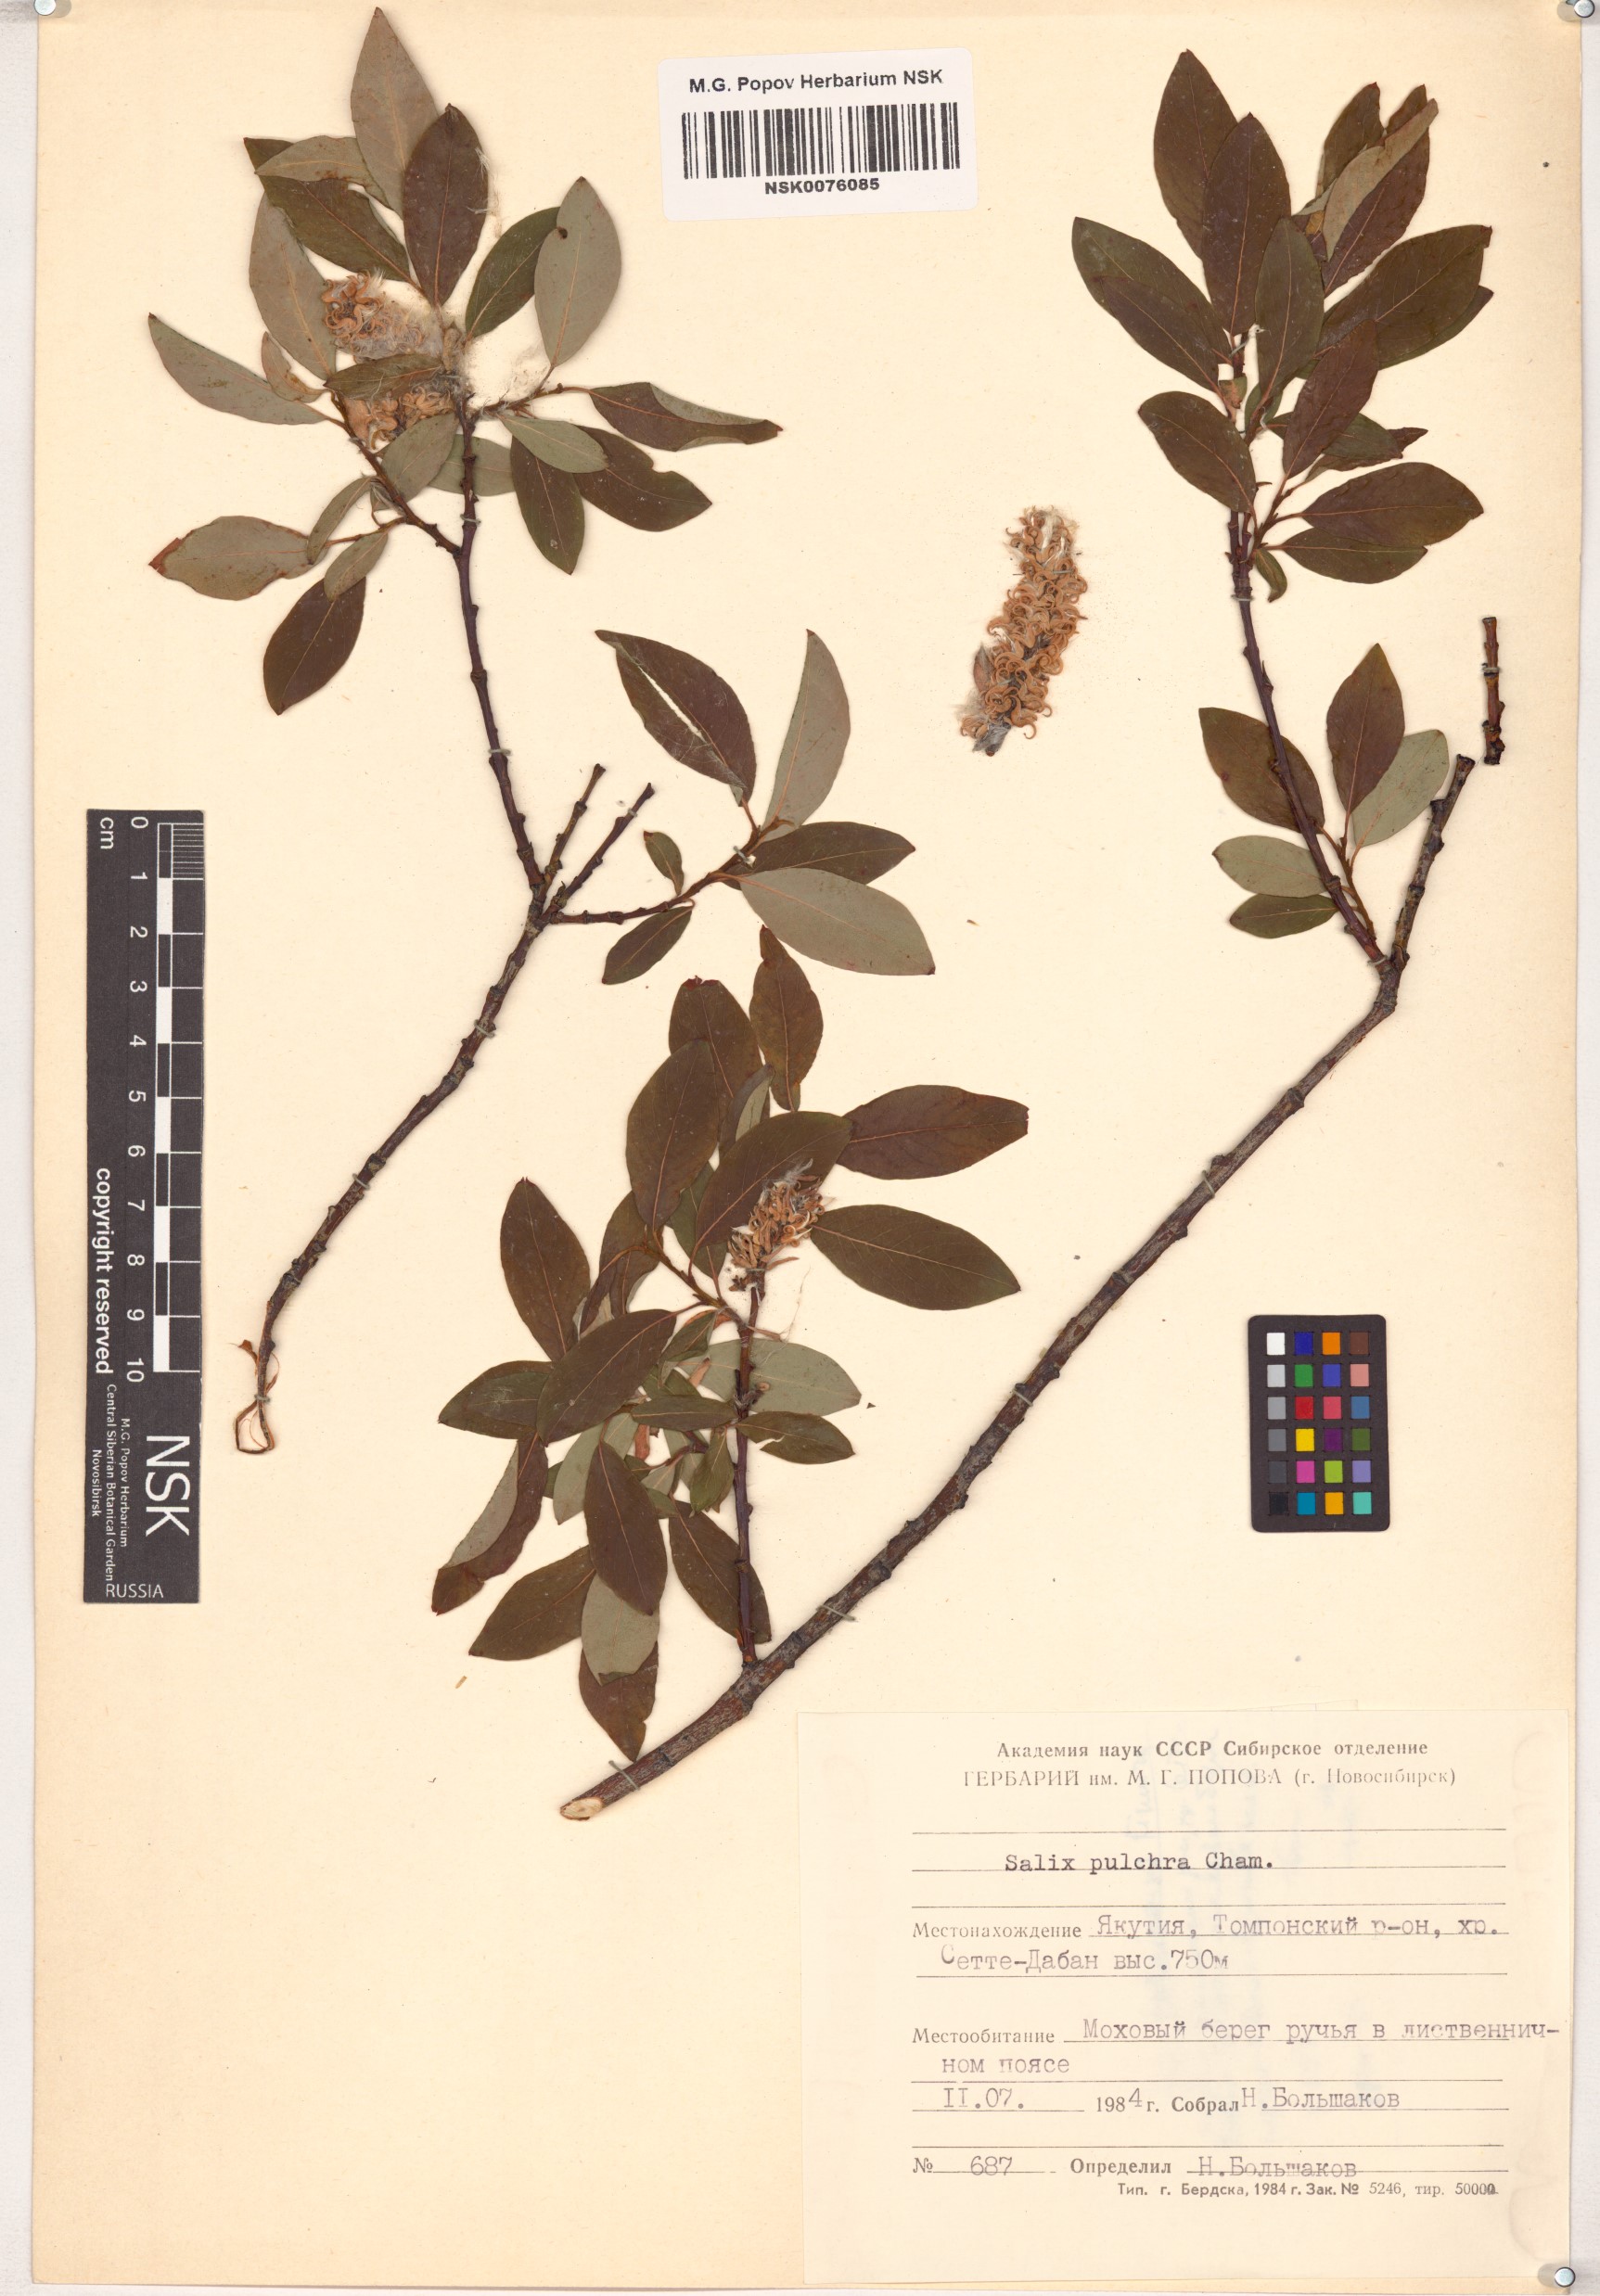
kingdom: Plantae
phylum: Tracheophyta
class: Magnoliopsida
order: Malpighiales
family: Salicaceae
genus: Salix
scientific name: Salix pulchra
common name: Diamond-leaved willow
